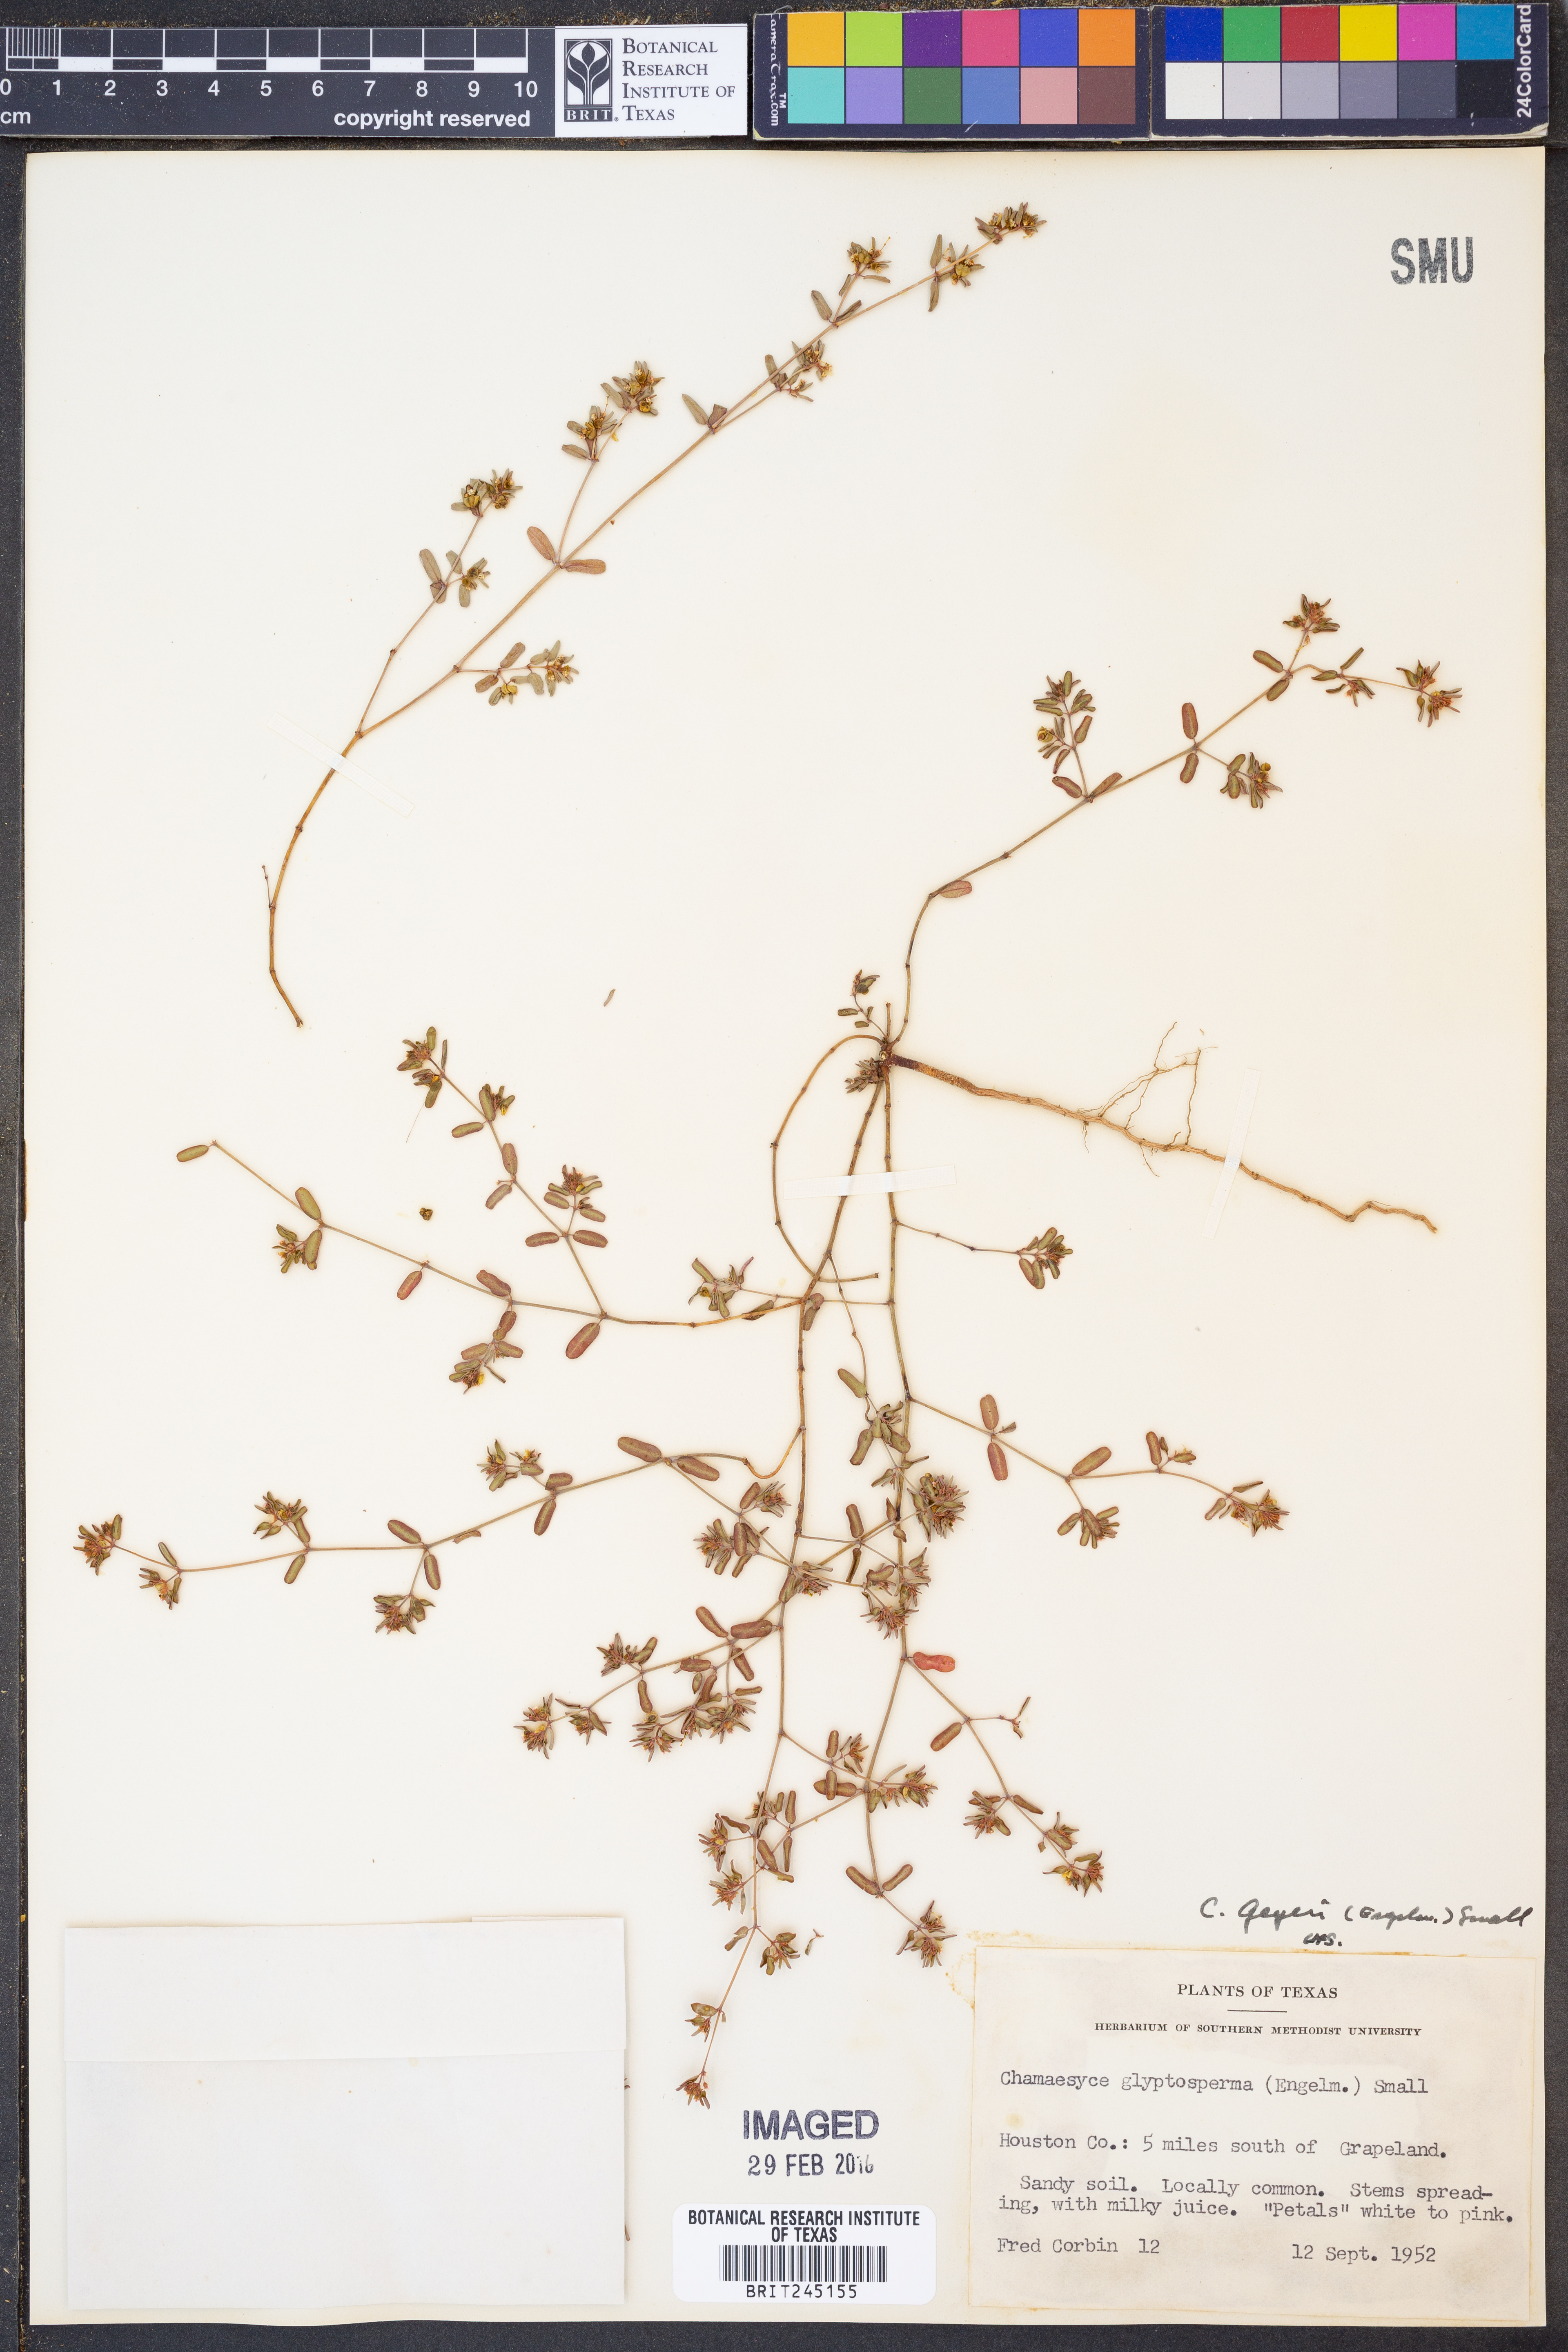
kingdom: Plantae
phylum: Tracheophyta
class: Magnoliopsida
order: Malpighiales
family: Euphorbiaceae
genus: Euphorbia
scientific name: Euphorbia geyeri
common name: Geyer's spurge
